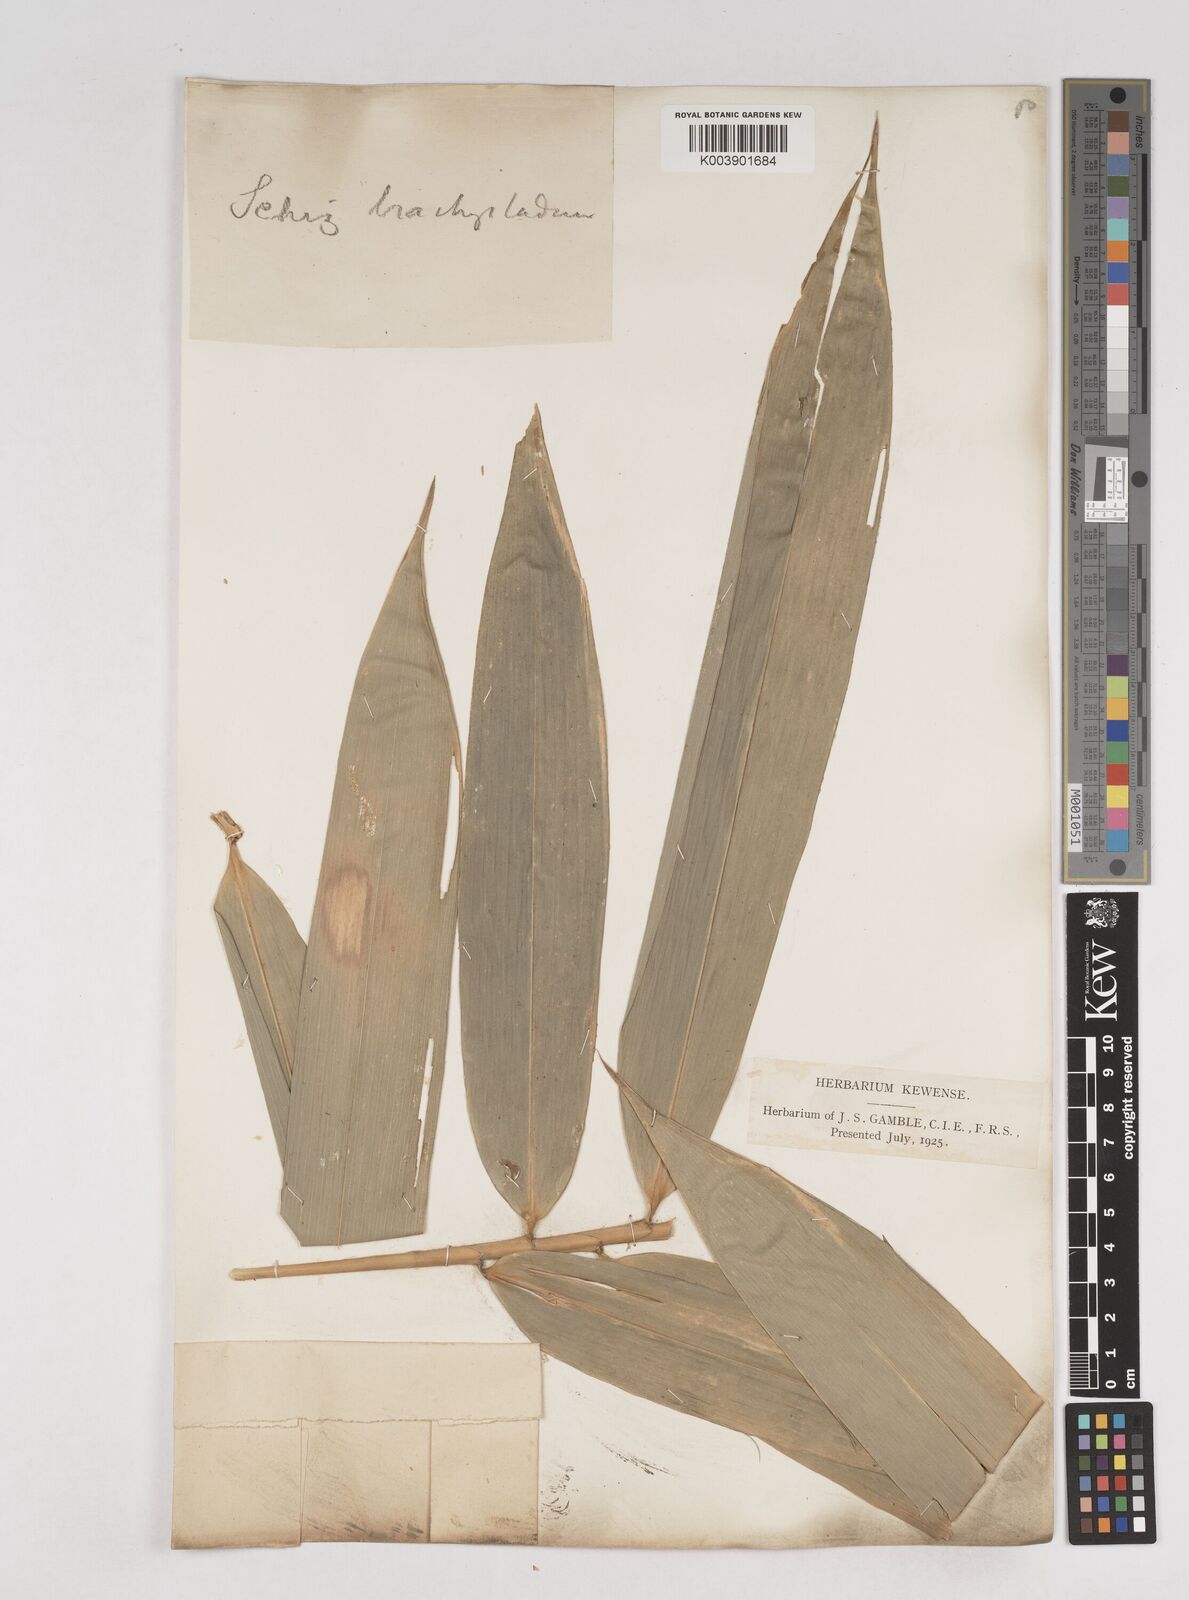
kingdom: Plantae
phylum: Tracheophyta
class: Liliopsida
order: Poales
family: Poaceae
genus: Schizostachyum
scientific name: Schizostachyum brachycladum
